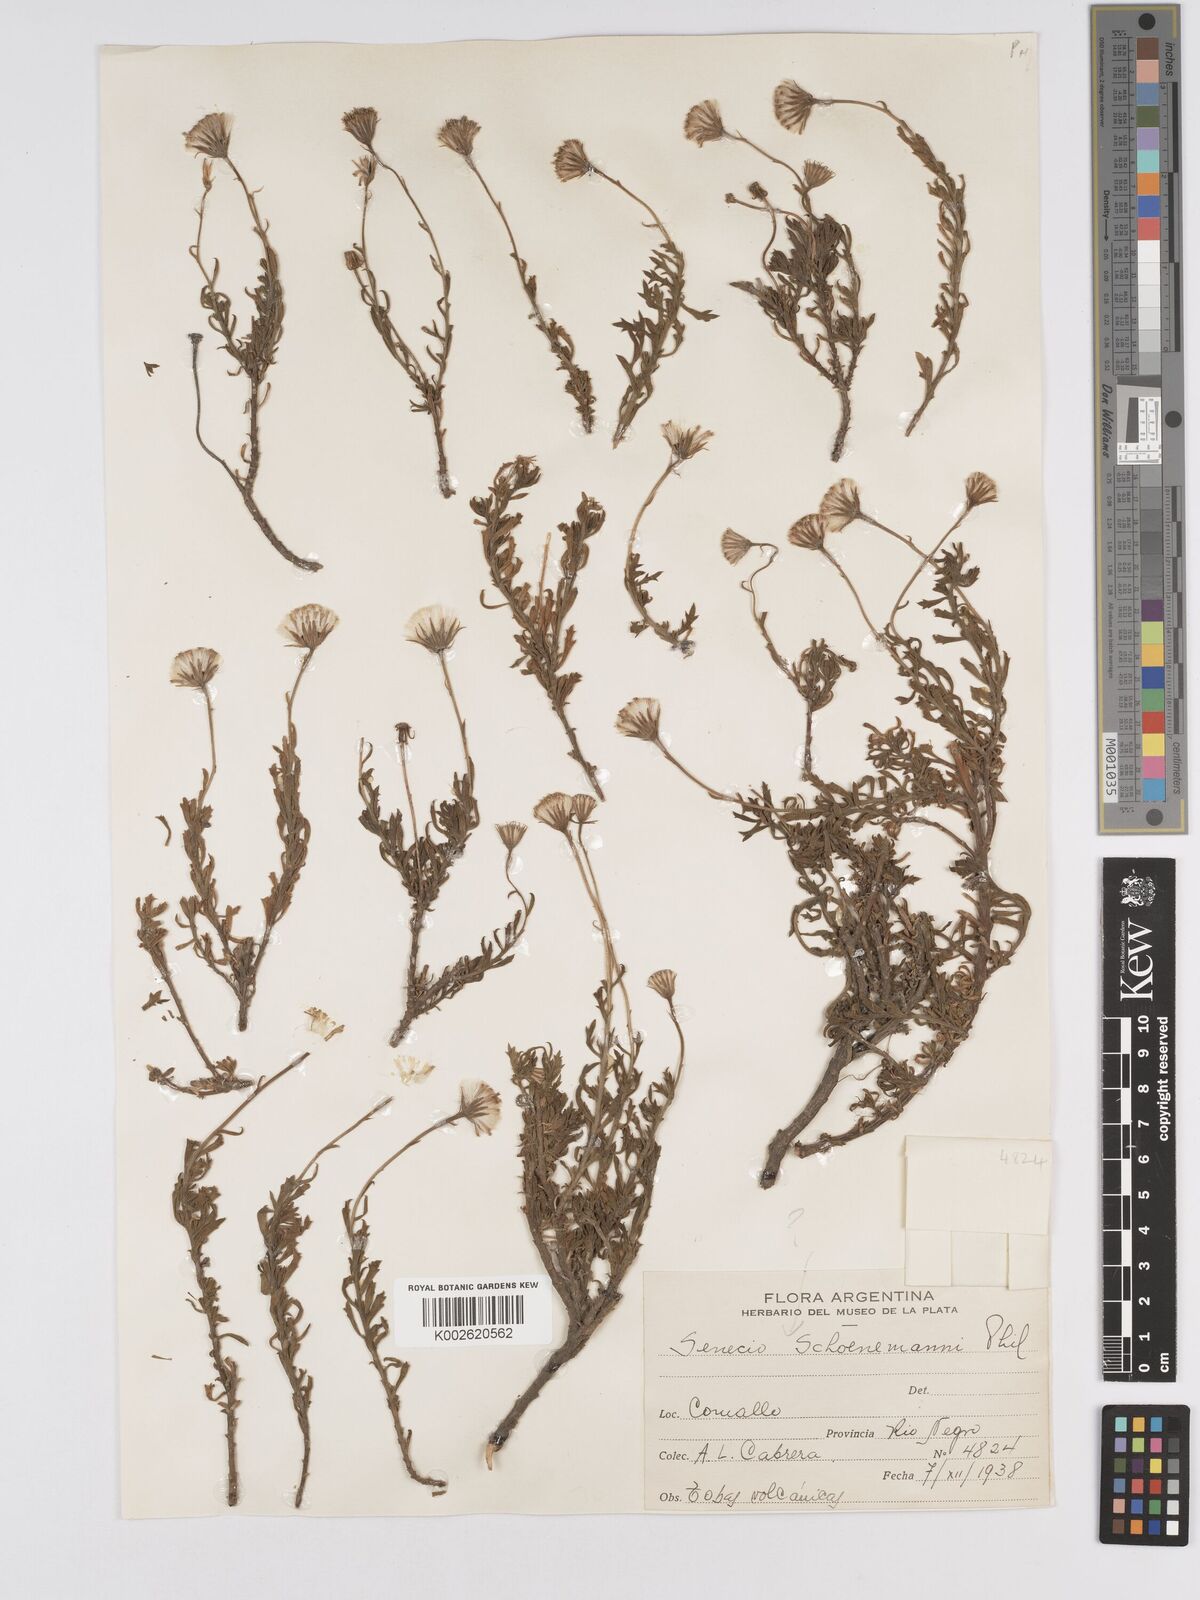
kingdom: Plantae
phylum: Tracheophyta
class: Magnoliopsida
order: Asterales
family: Asteraceae
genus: Senecio
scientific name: Senecio schoenemanni
